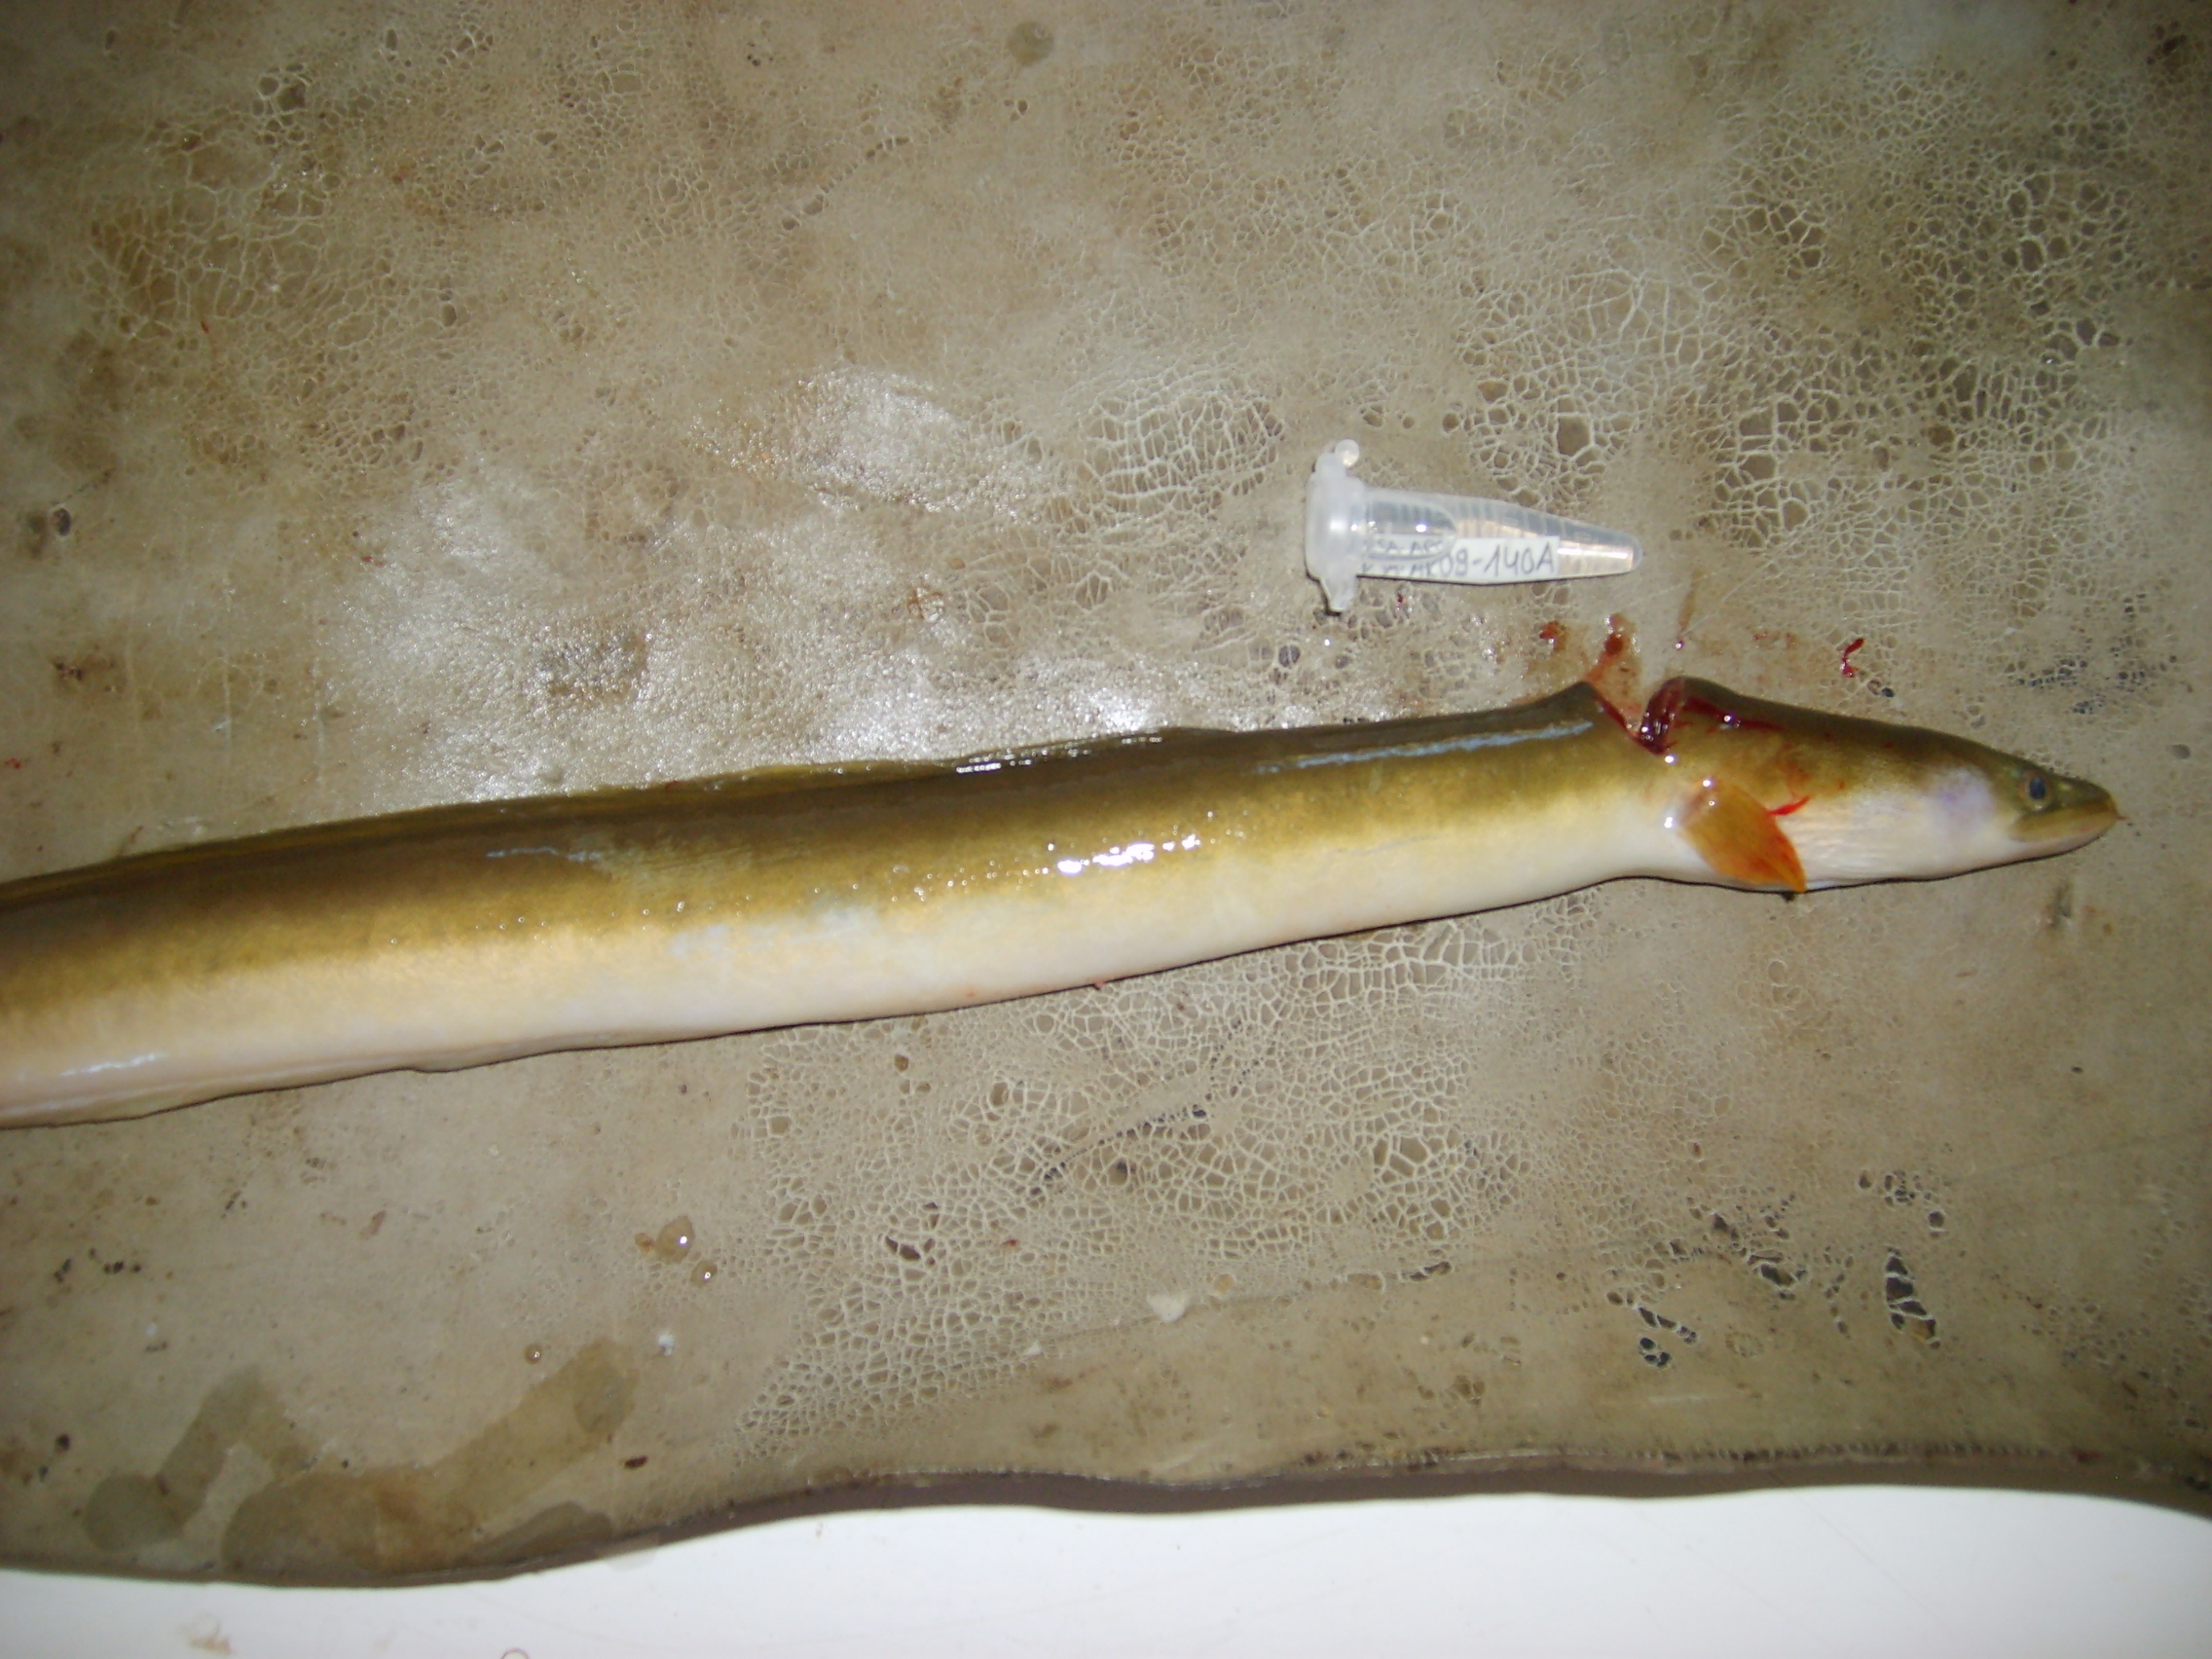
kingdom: Animalia
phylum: Chordata
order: Anguilliformes
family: Anguillidae
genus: Anguilla
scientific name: Anguilla mossambica
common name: African longfin eel
